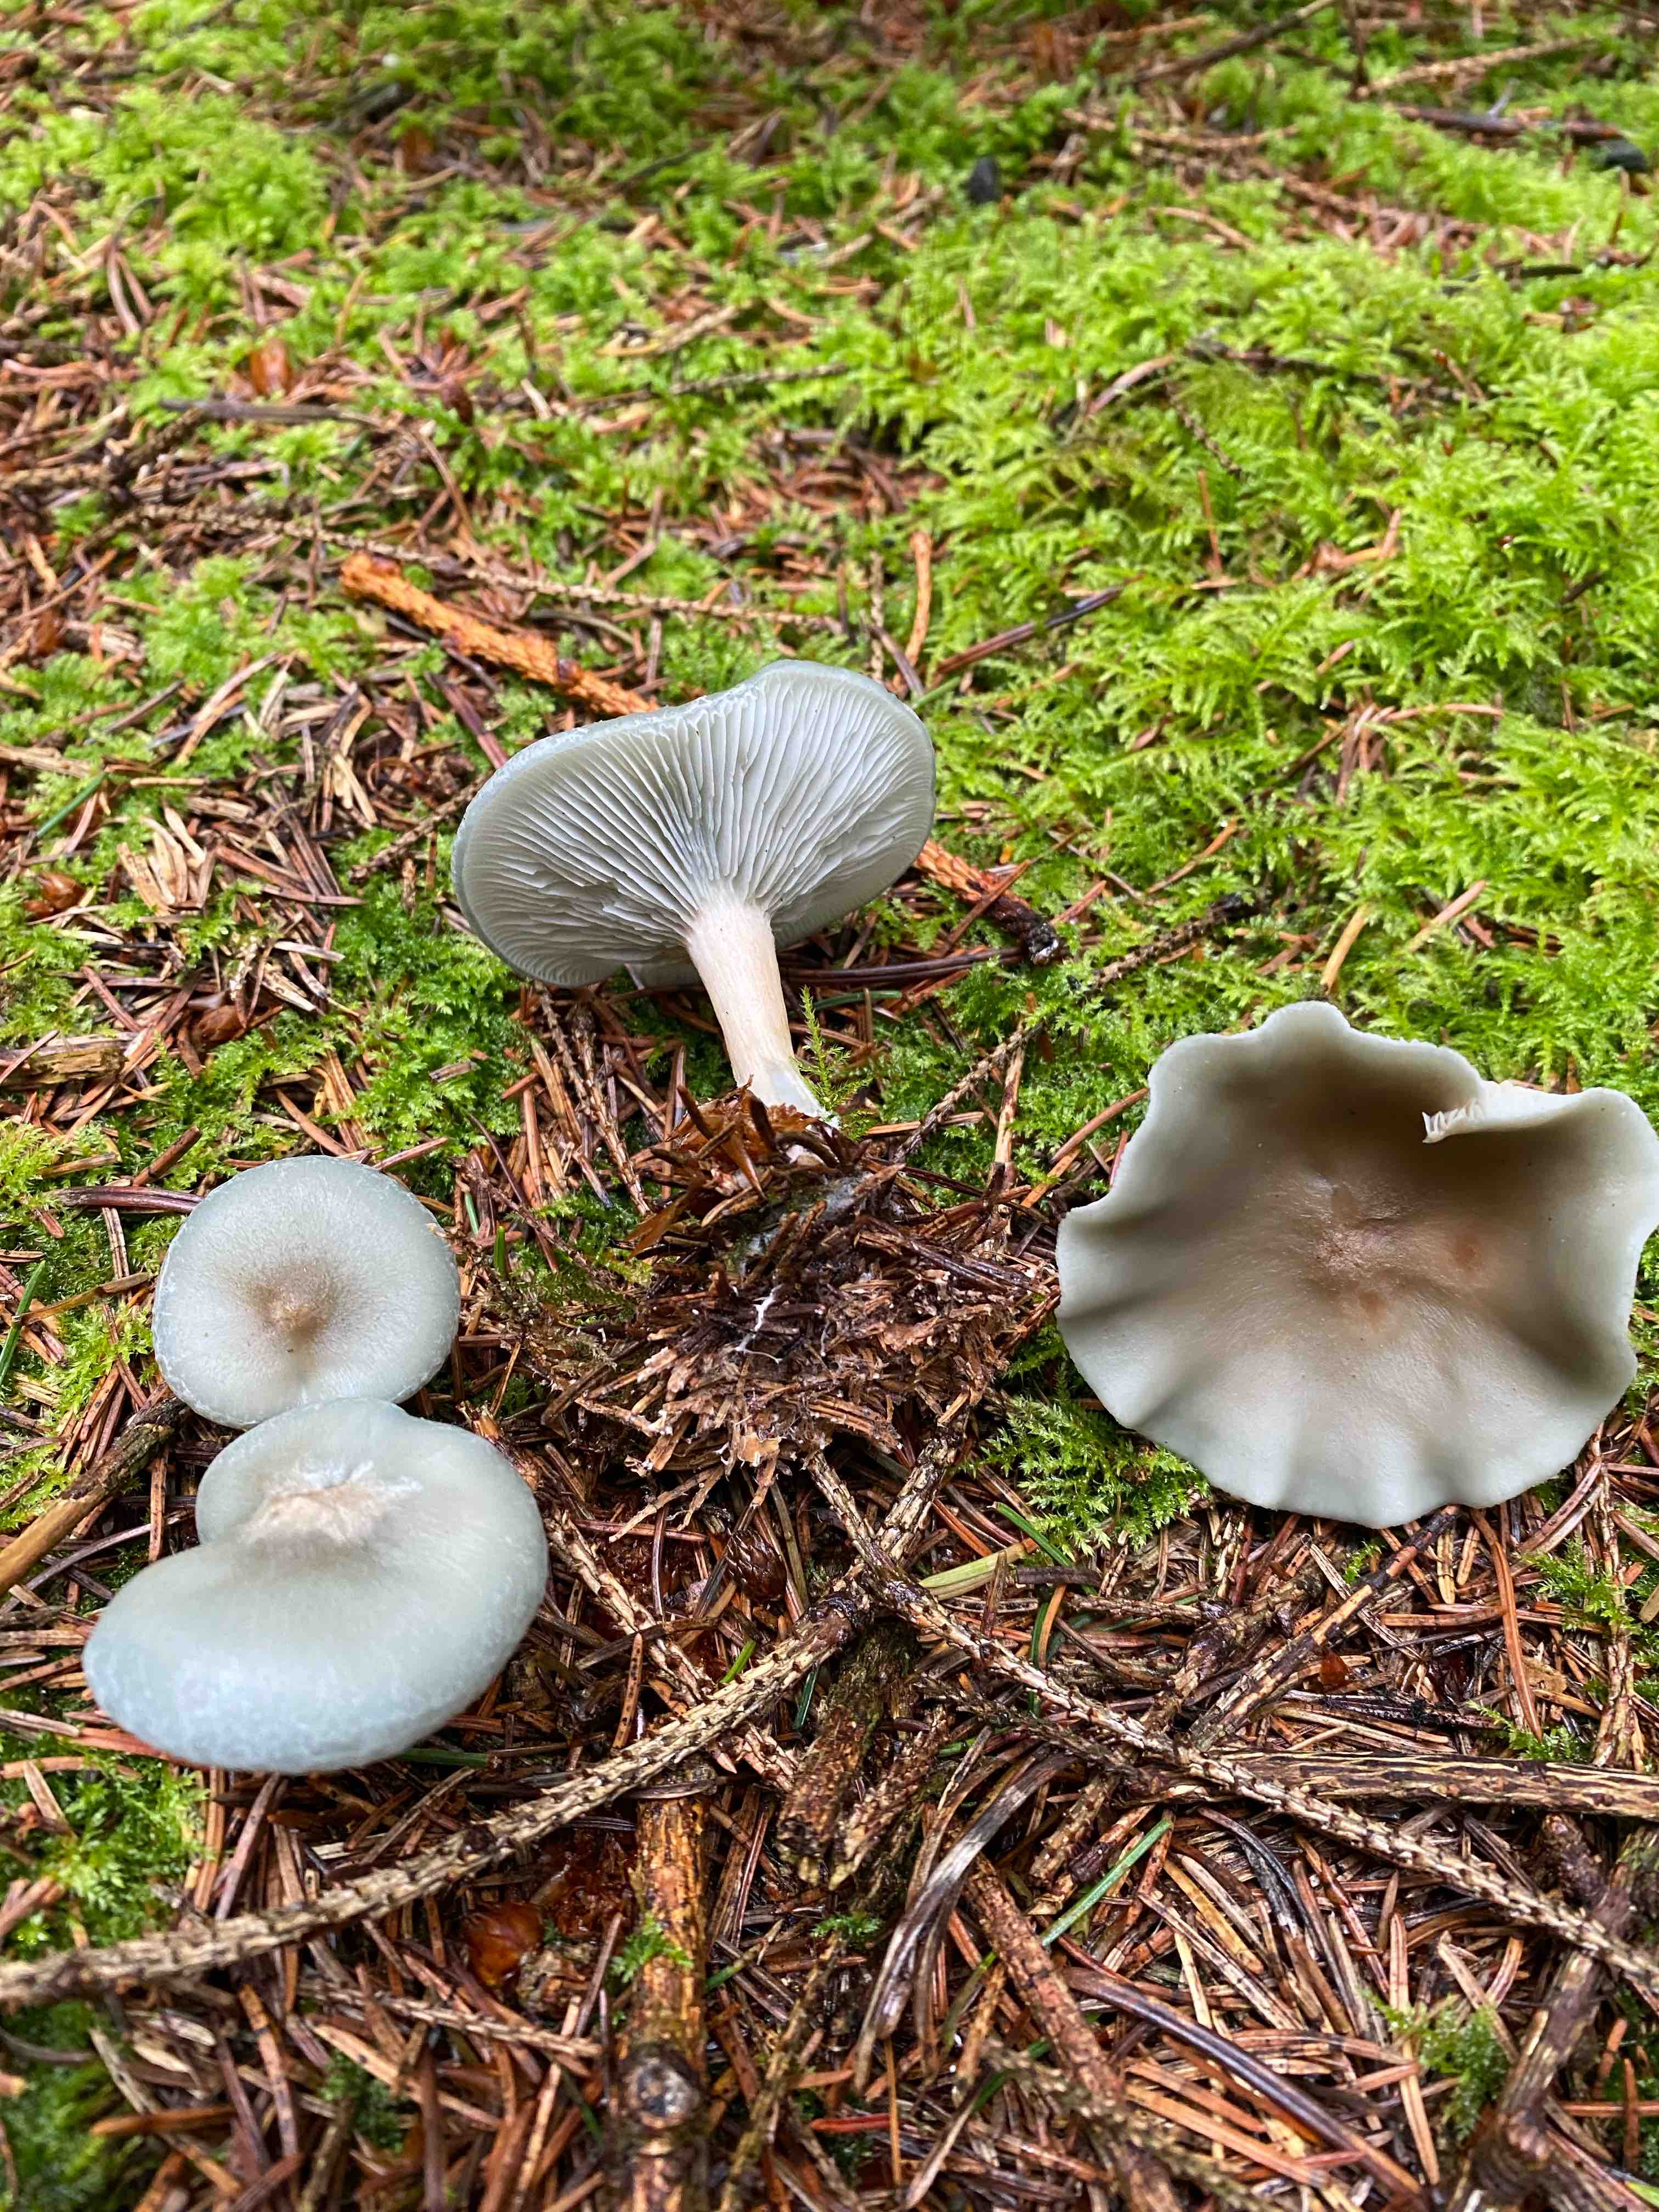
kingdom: Fungi
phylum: Basidiomycota
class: Agaricomycetes
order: Agaricales
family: Tricholomataceae
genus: Clitocybe
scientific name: Clitocybe odora
